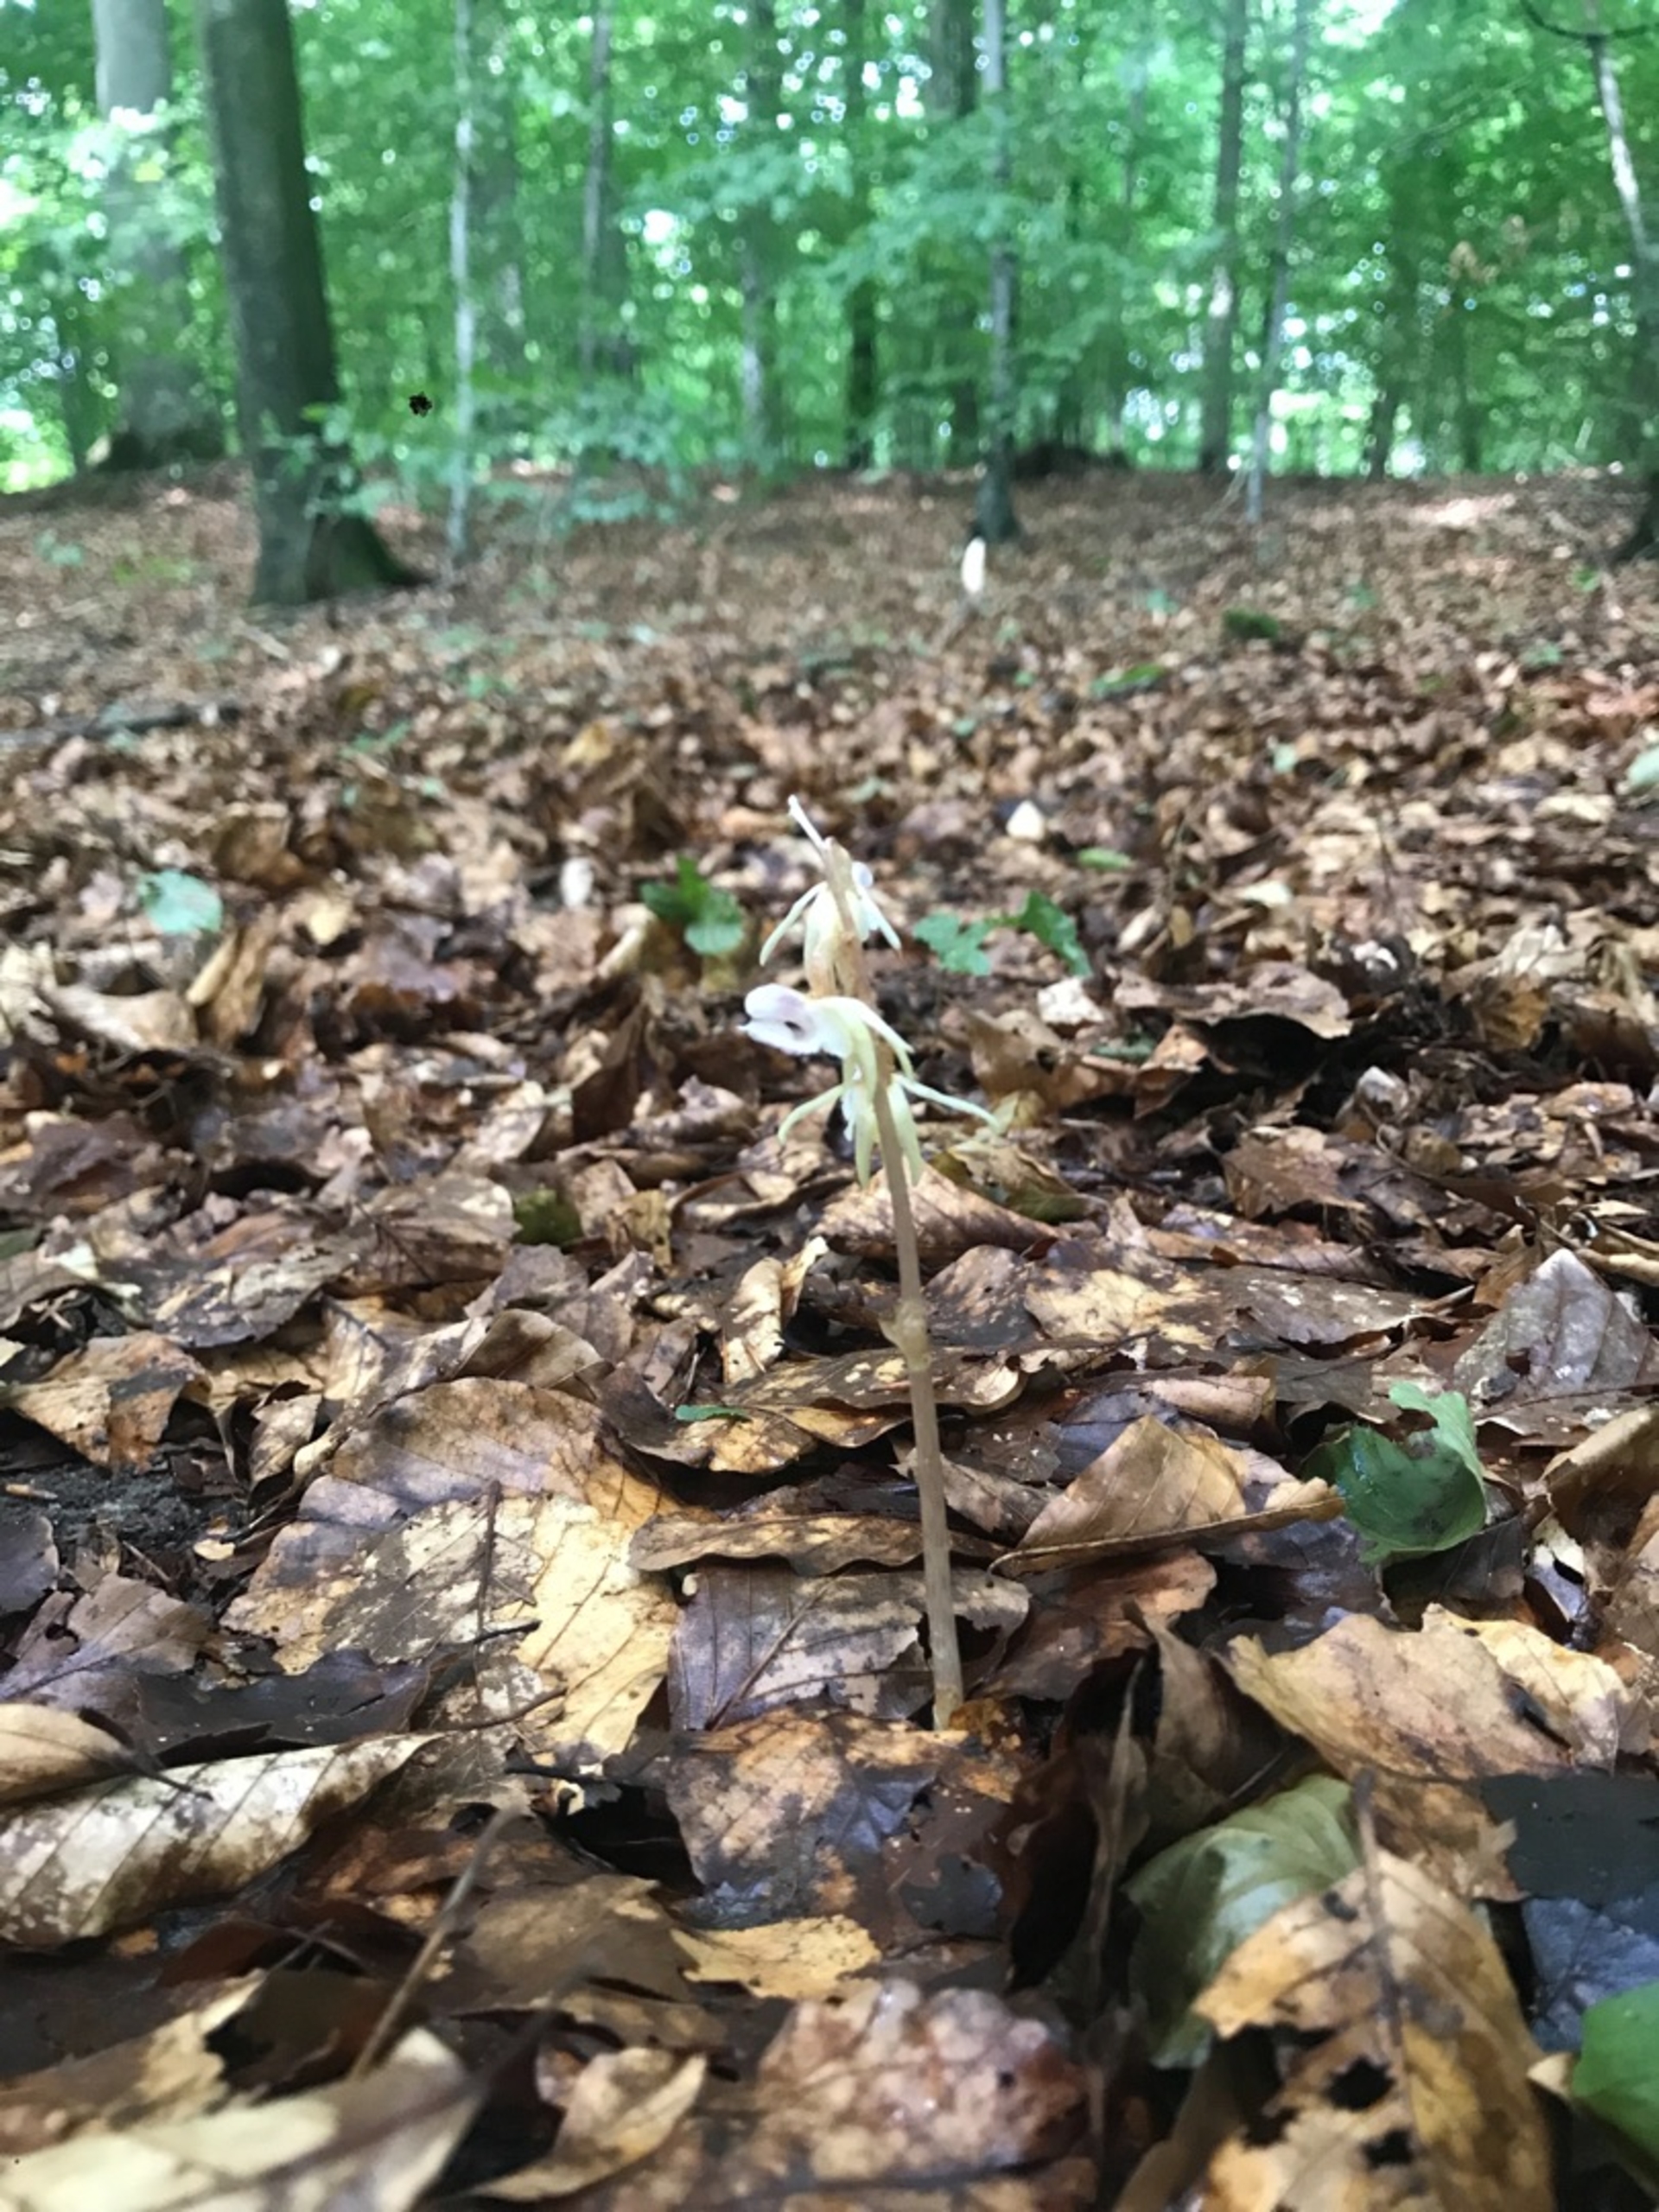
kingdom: Plantae
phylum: Tracheophyta
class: Liliopsida
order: Asparagales
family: Orchidaceae
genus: Epipogium
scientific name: Epipogium aphyllum
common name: Knælæbe
